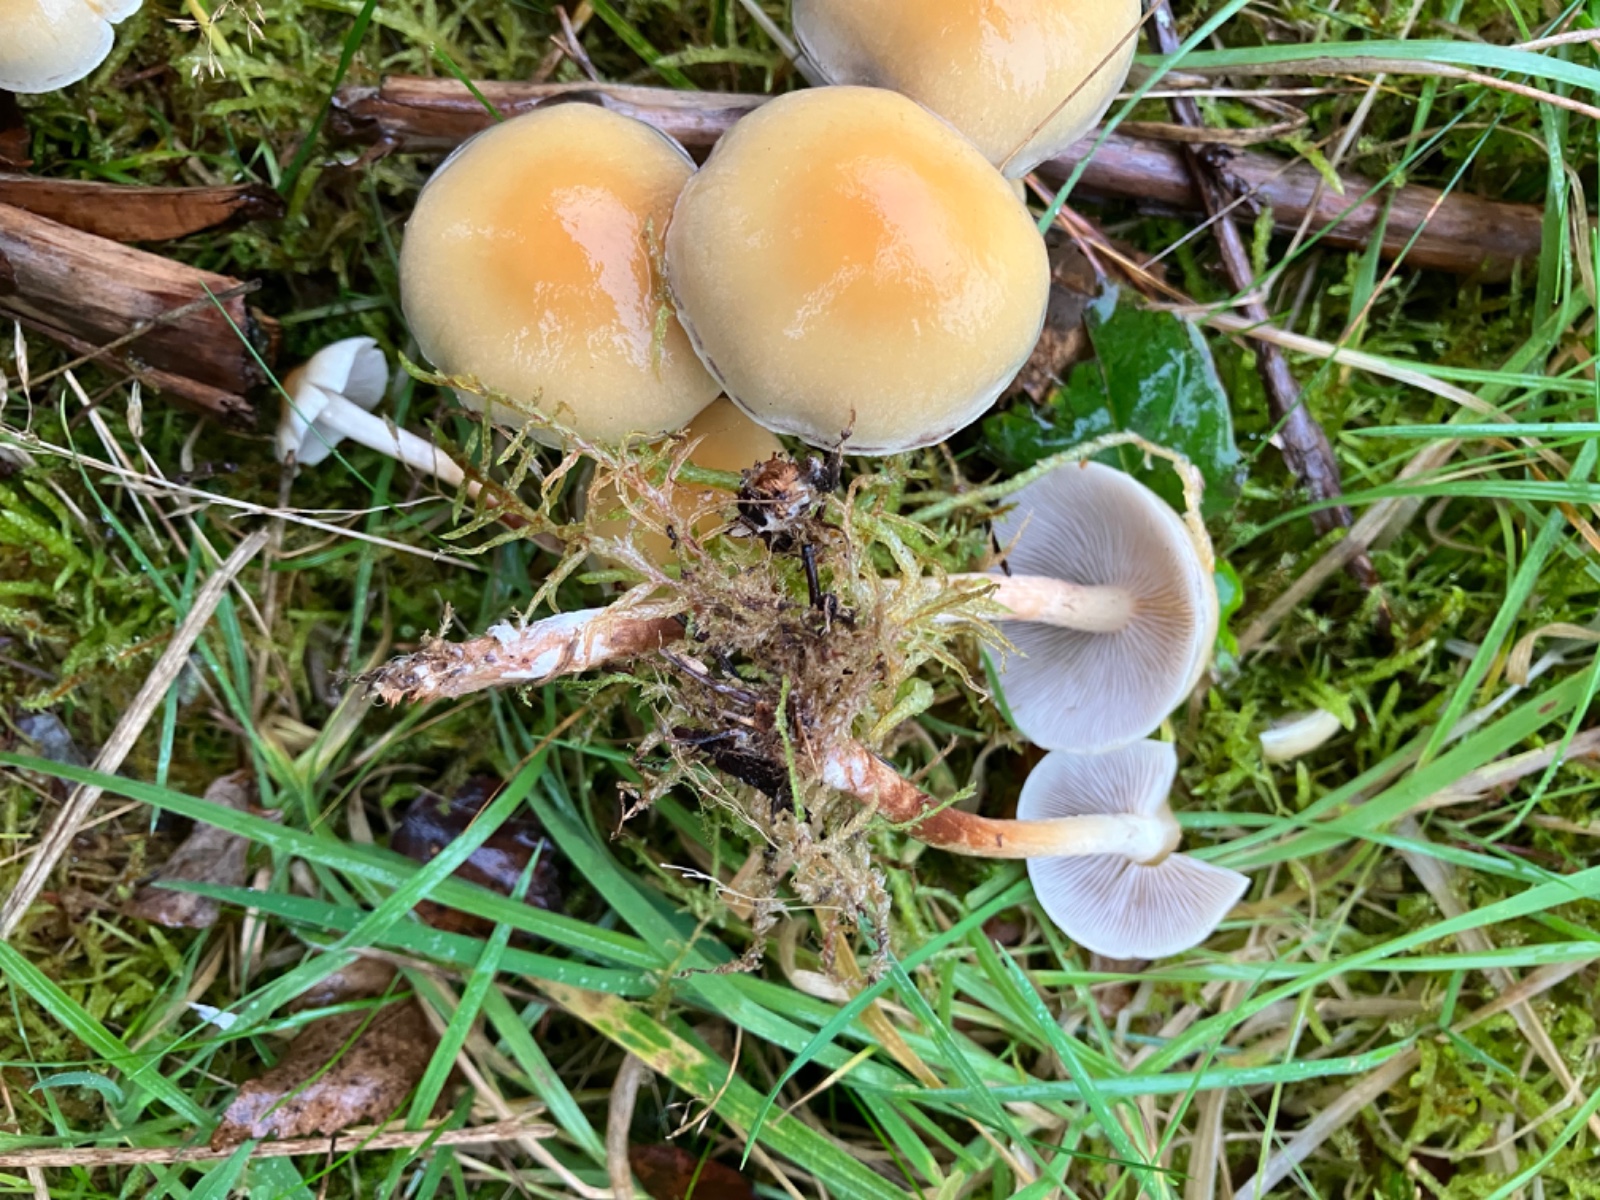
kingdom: Fungi
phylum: Basidiomycota
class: Agaricomycetes
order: Agaricales
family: Strophariaceae
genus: Hypholoma
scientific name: Hypholoma capnoides
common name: gran-svovlhat
